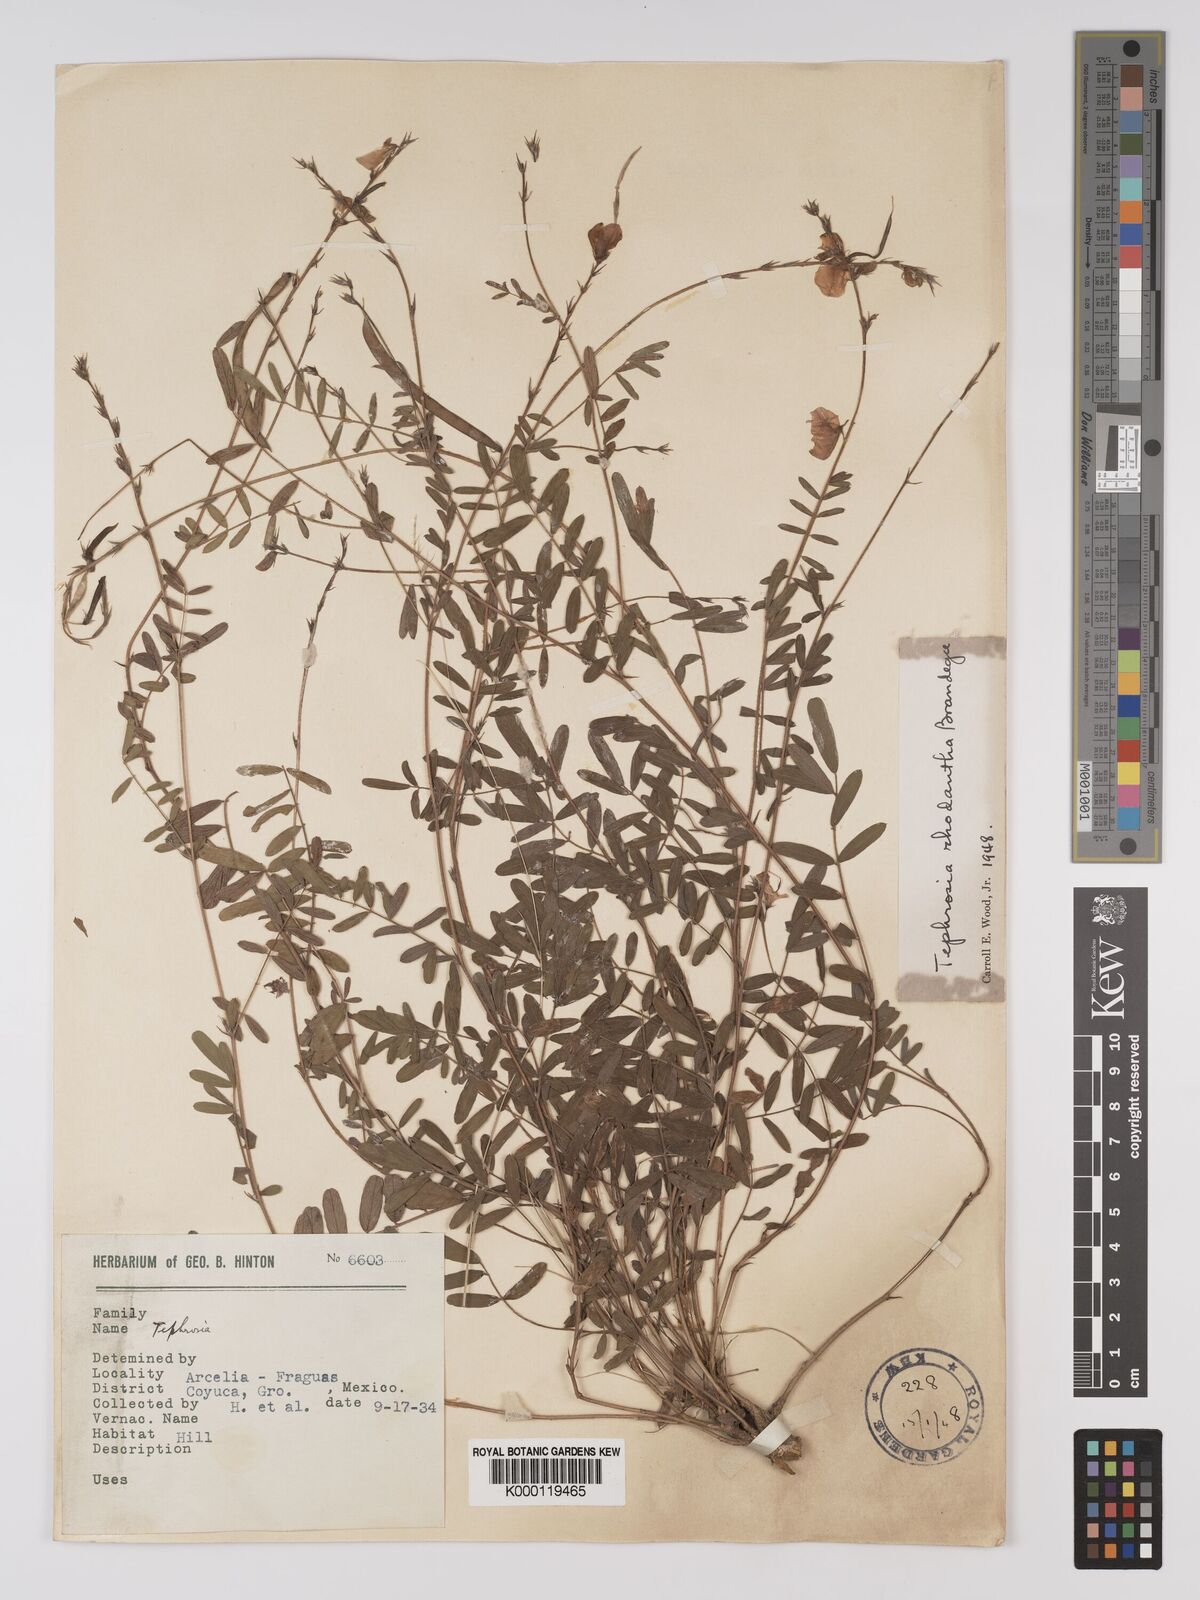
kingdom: Plantae
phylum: Tracheophyta
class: Magnoliopsida
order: Fabales
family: Fabaceae
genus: Tephrosia
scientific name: Tephrosia rhodantha
